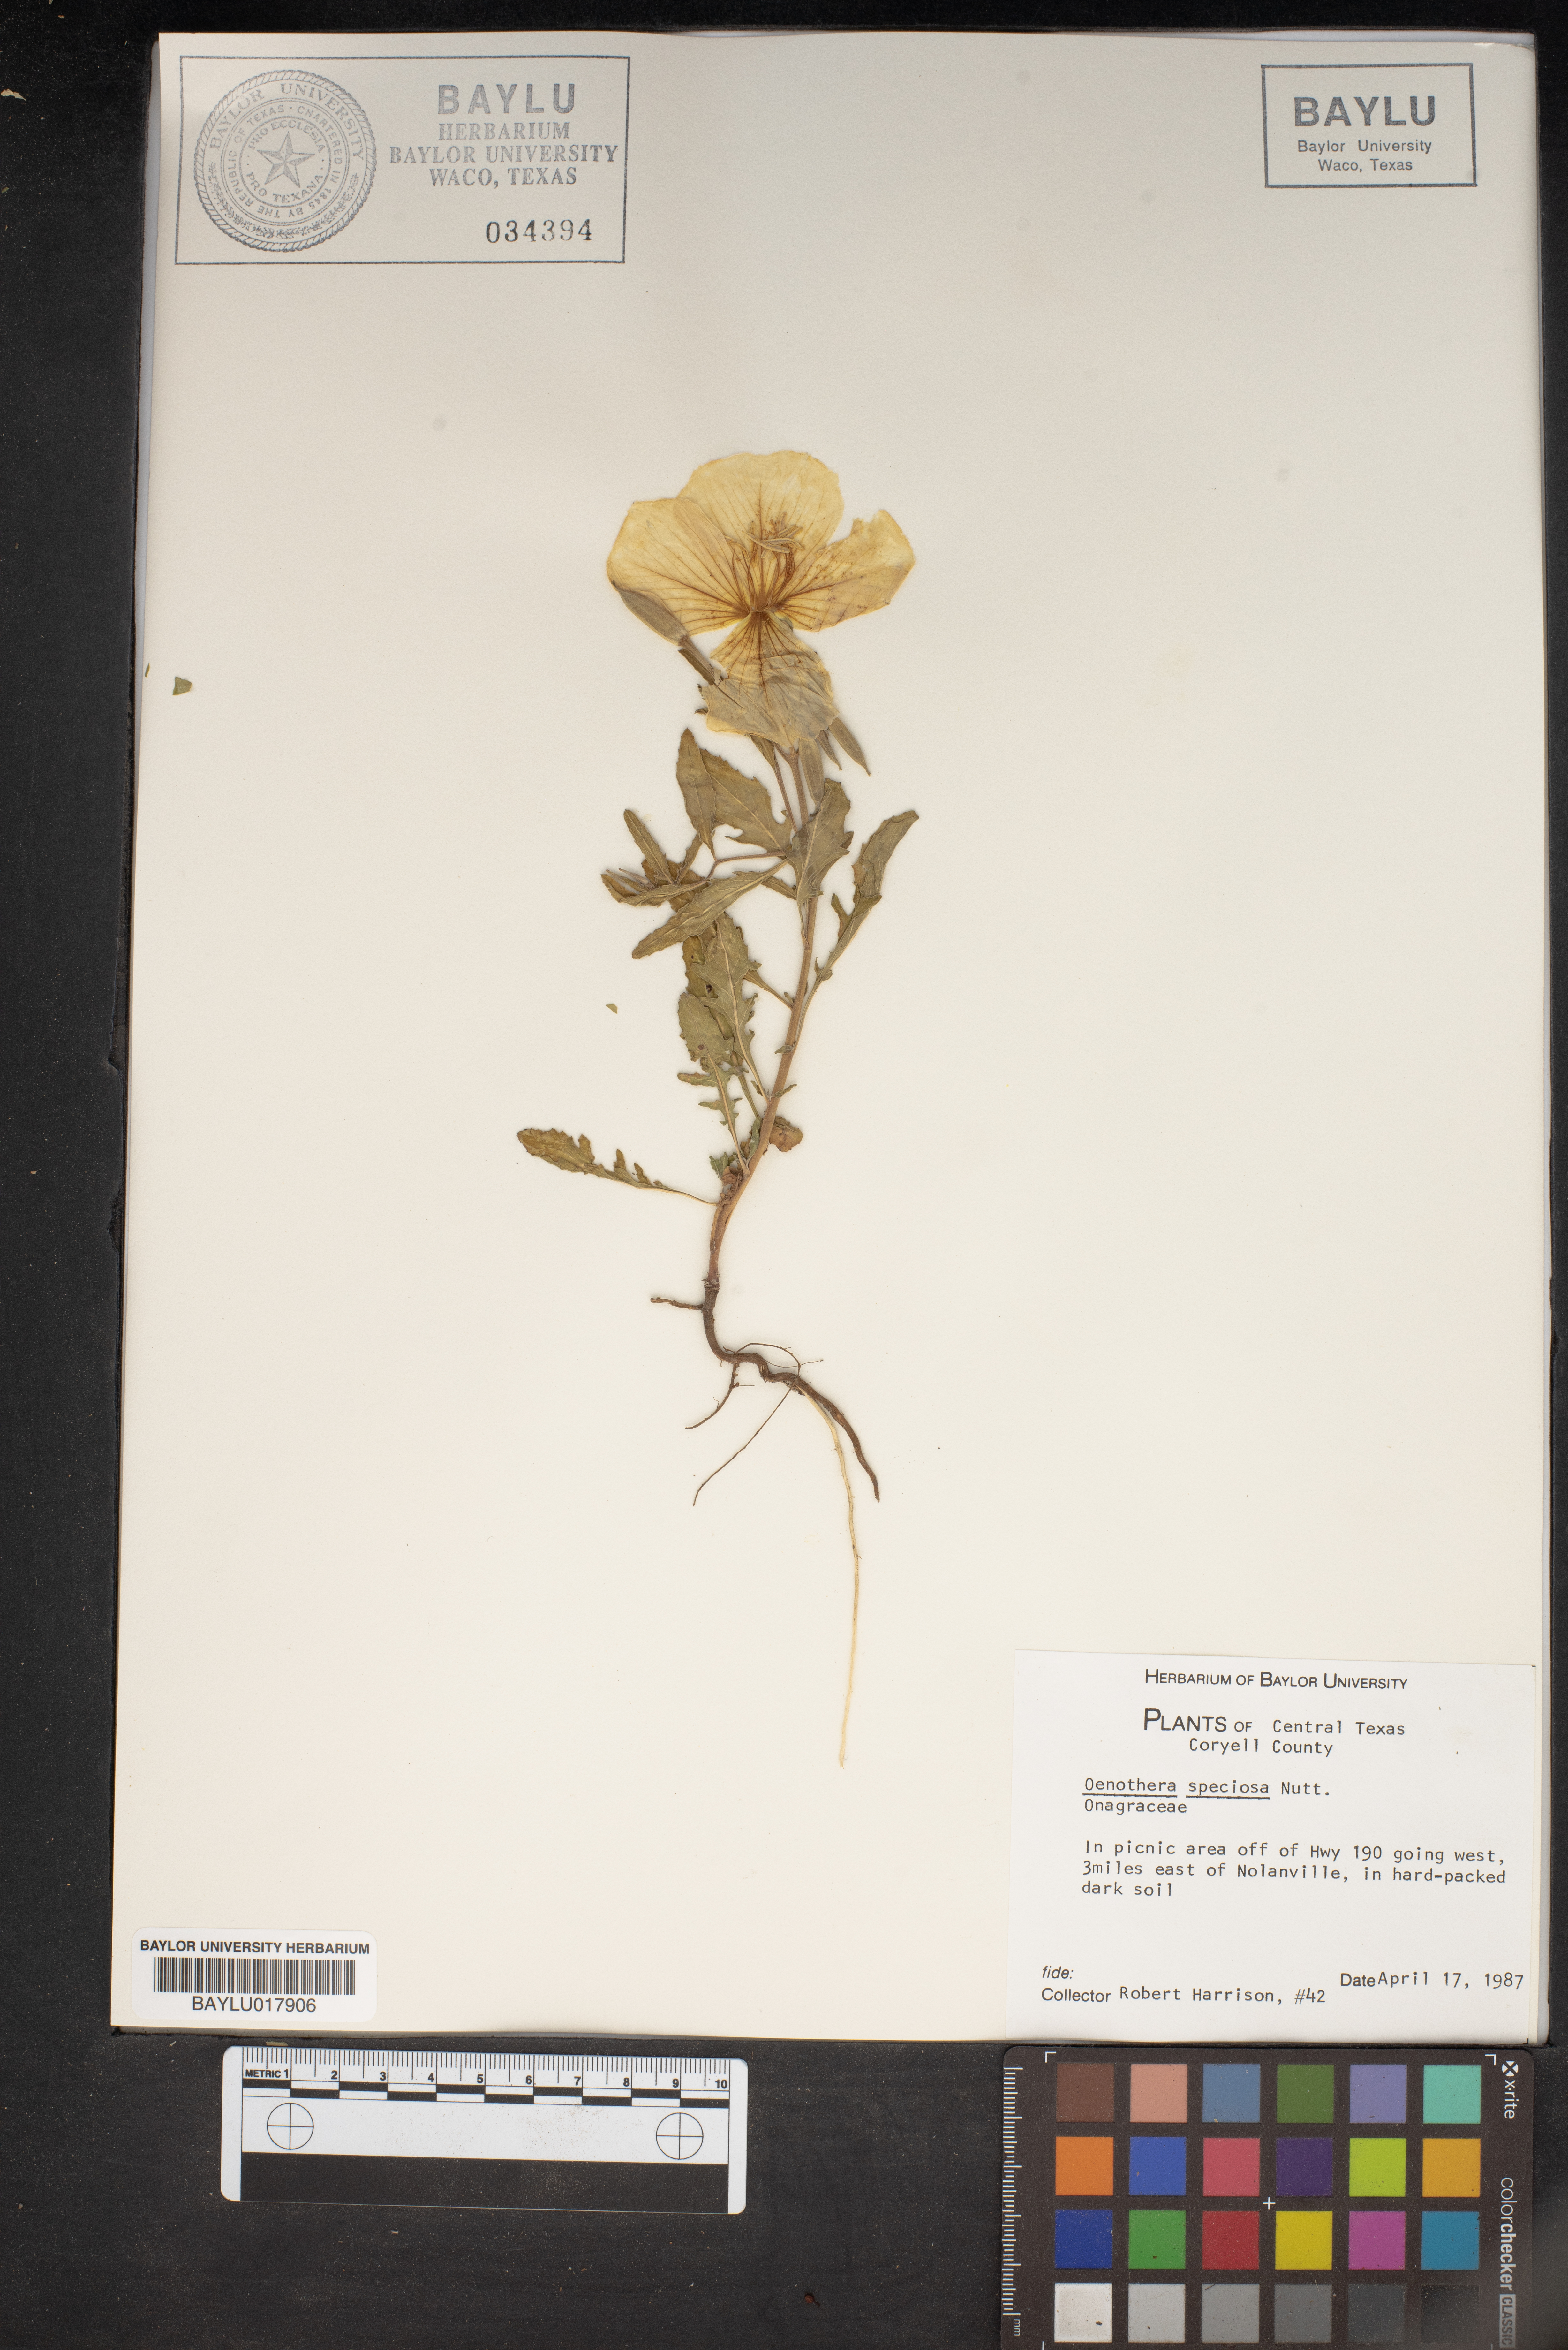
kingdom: Plantae
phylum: Tracheophyta
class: Magnoliopsida
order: Myrtales
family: Onagraceae
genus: Oenothera
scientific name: Oenothera speciosa
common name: White evening-primrose
